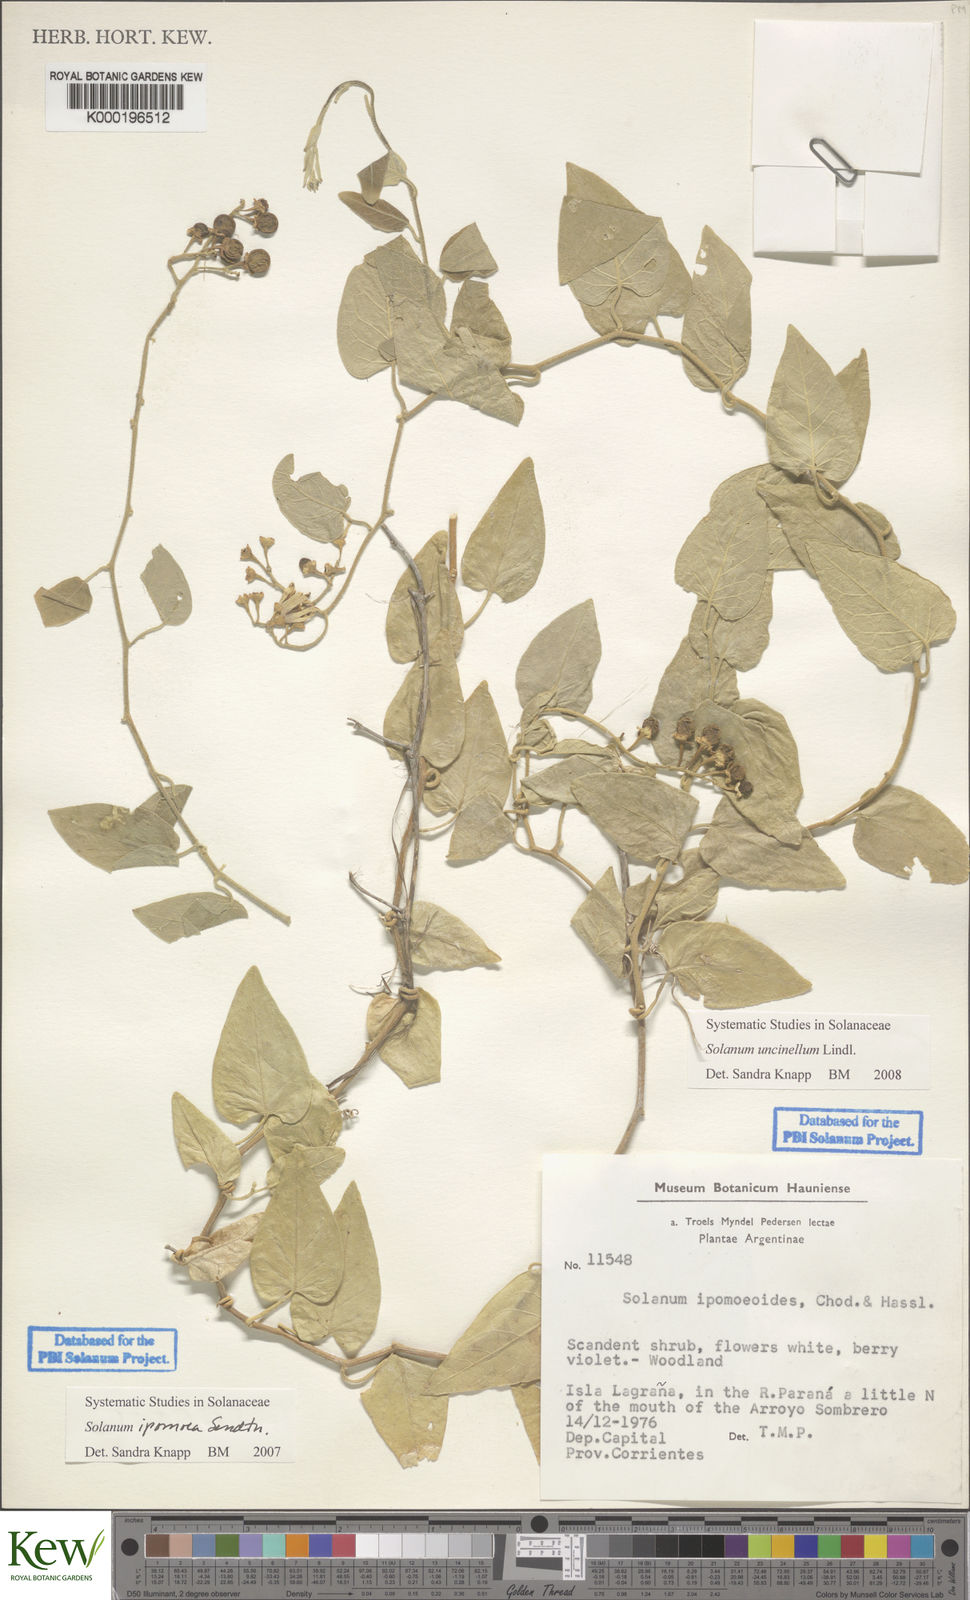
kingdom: Plantae
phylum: Tracheophyta
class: Magnoliopsida
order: Solanales
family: Solanaceae
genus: Solanum
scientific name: Solanum uncinellum
